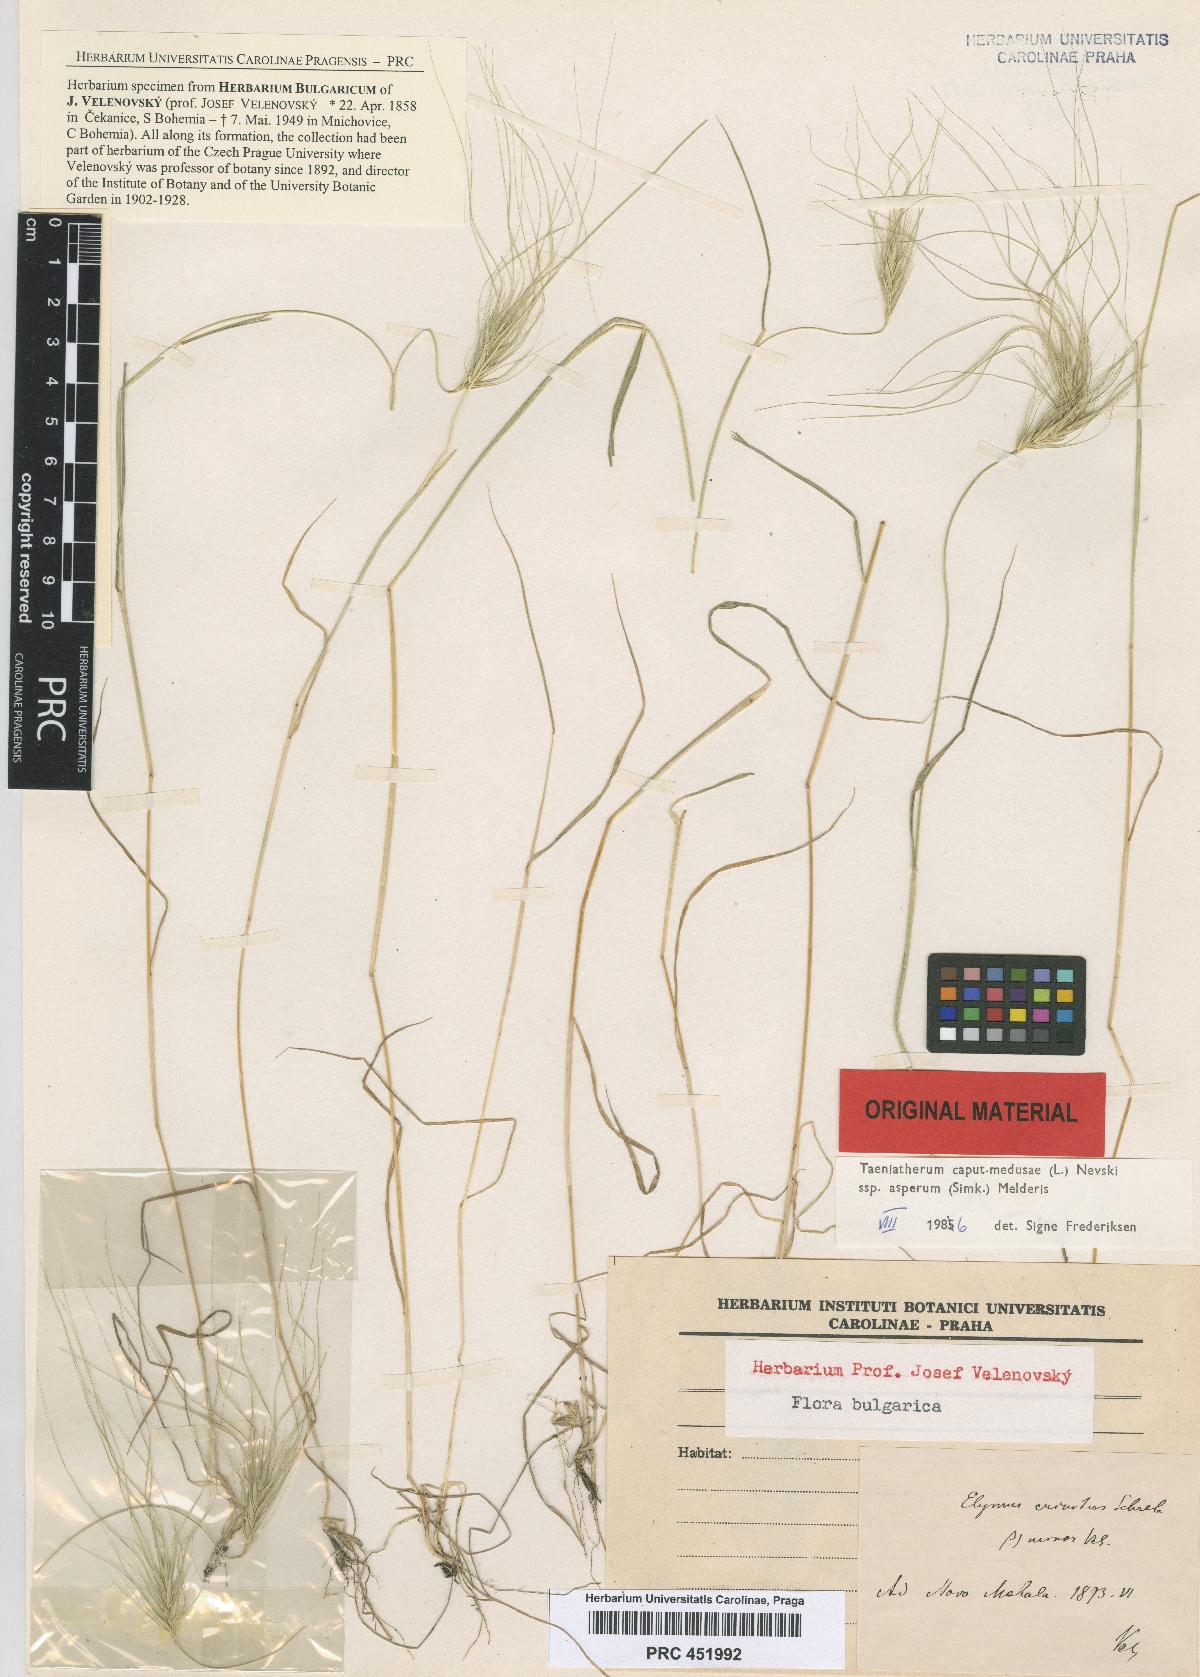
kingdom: Plantae
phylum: Tracheophyta
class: Liliopsida
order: Poales
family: Poaceae
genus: Taeniatherum
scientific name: Taeniatherum caput-medusae
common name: Medusahead
